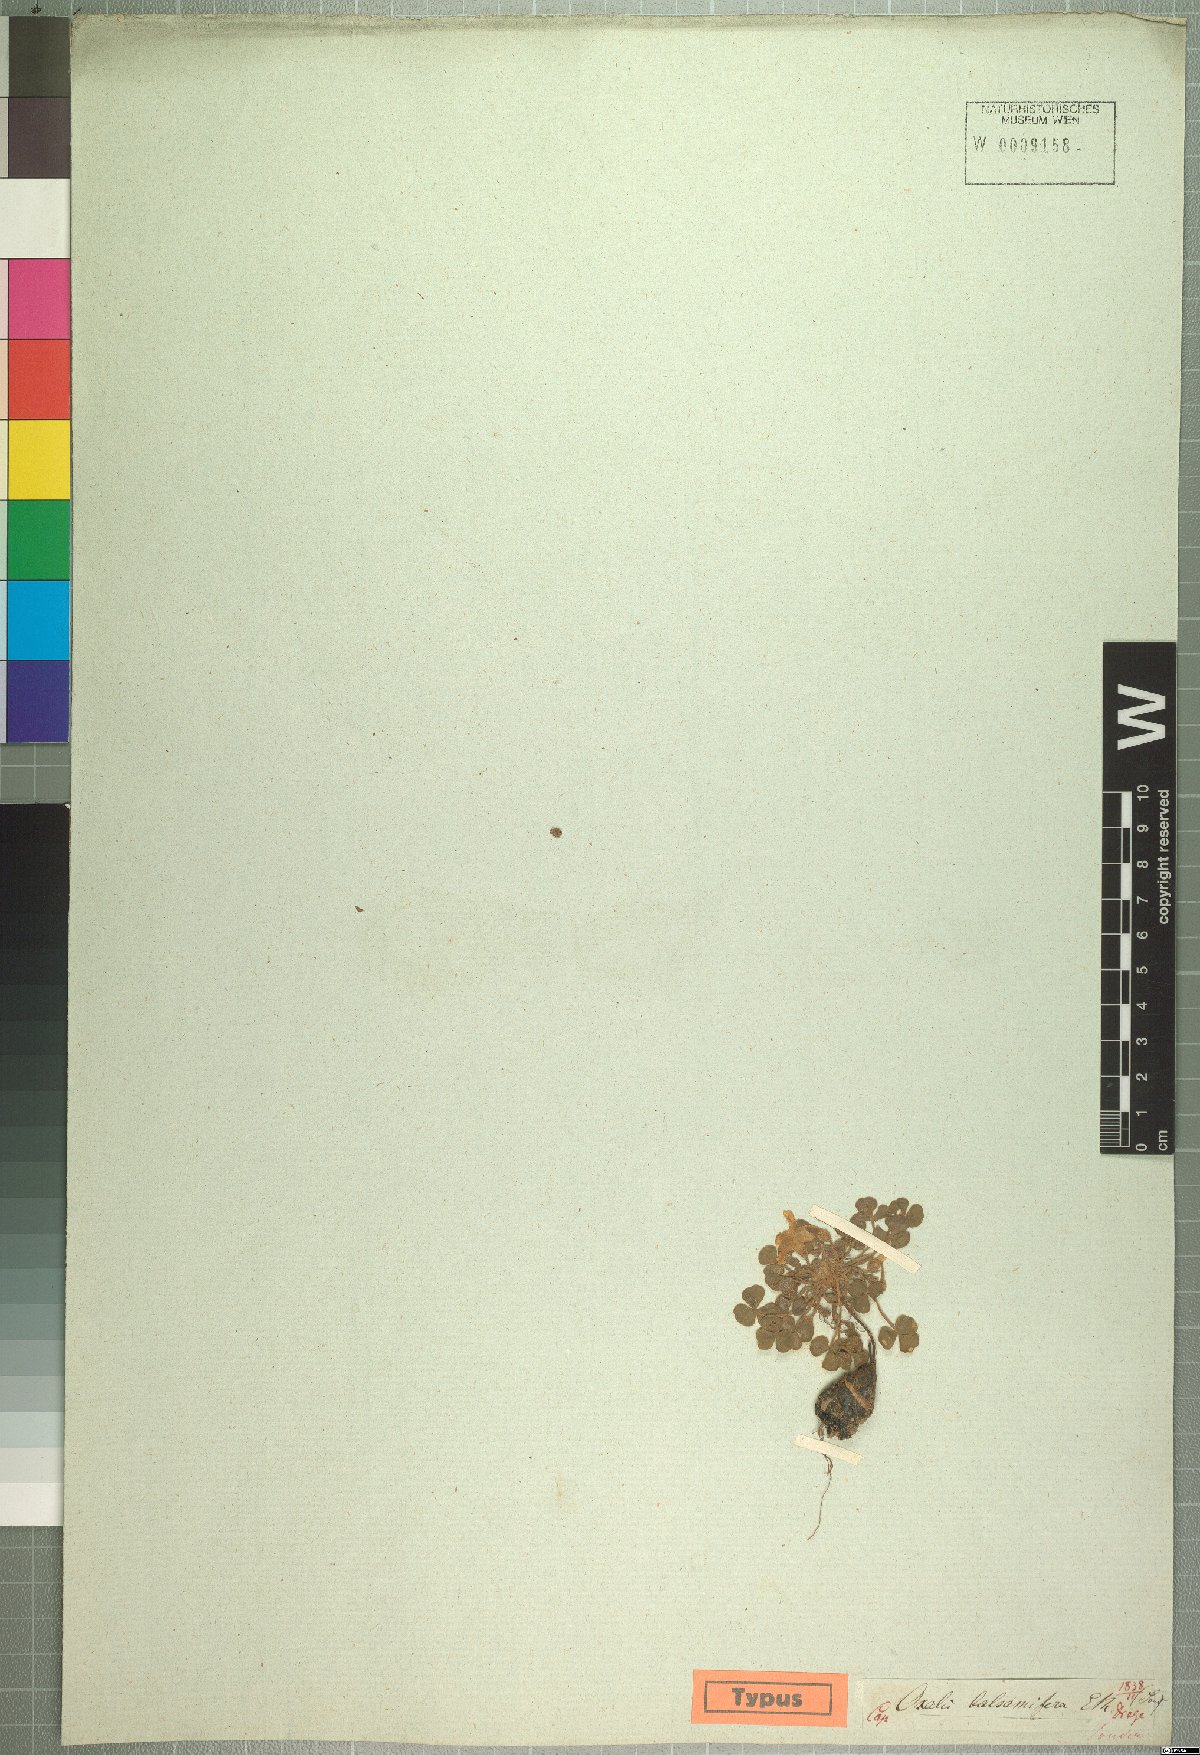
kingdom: Plantae
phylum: Tracheophyta
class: Magnoliopsida
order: Oxalidales
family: Oxalidaceae
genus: Oxalis
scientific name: Oxalis luteola
